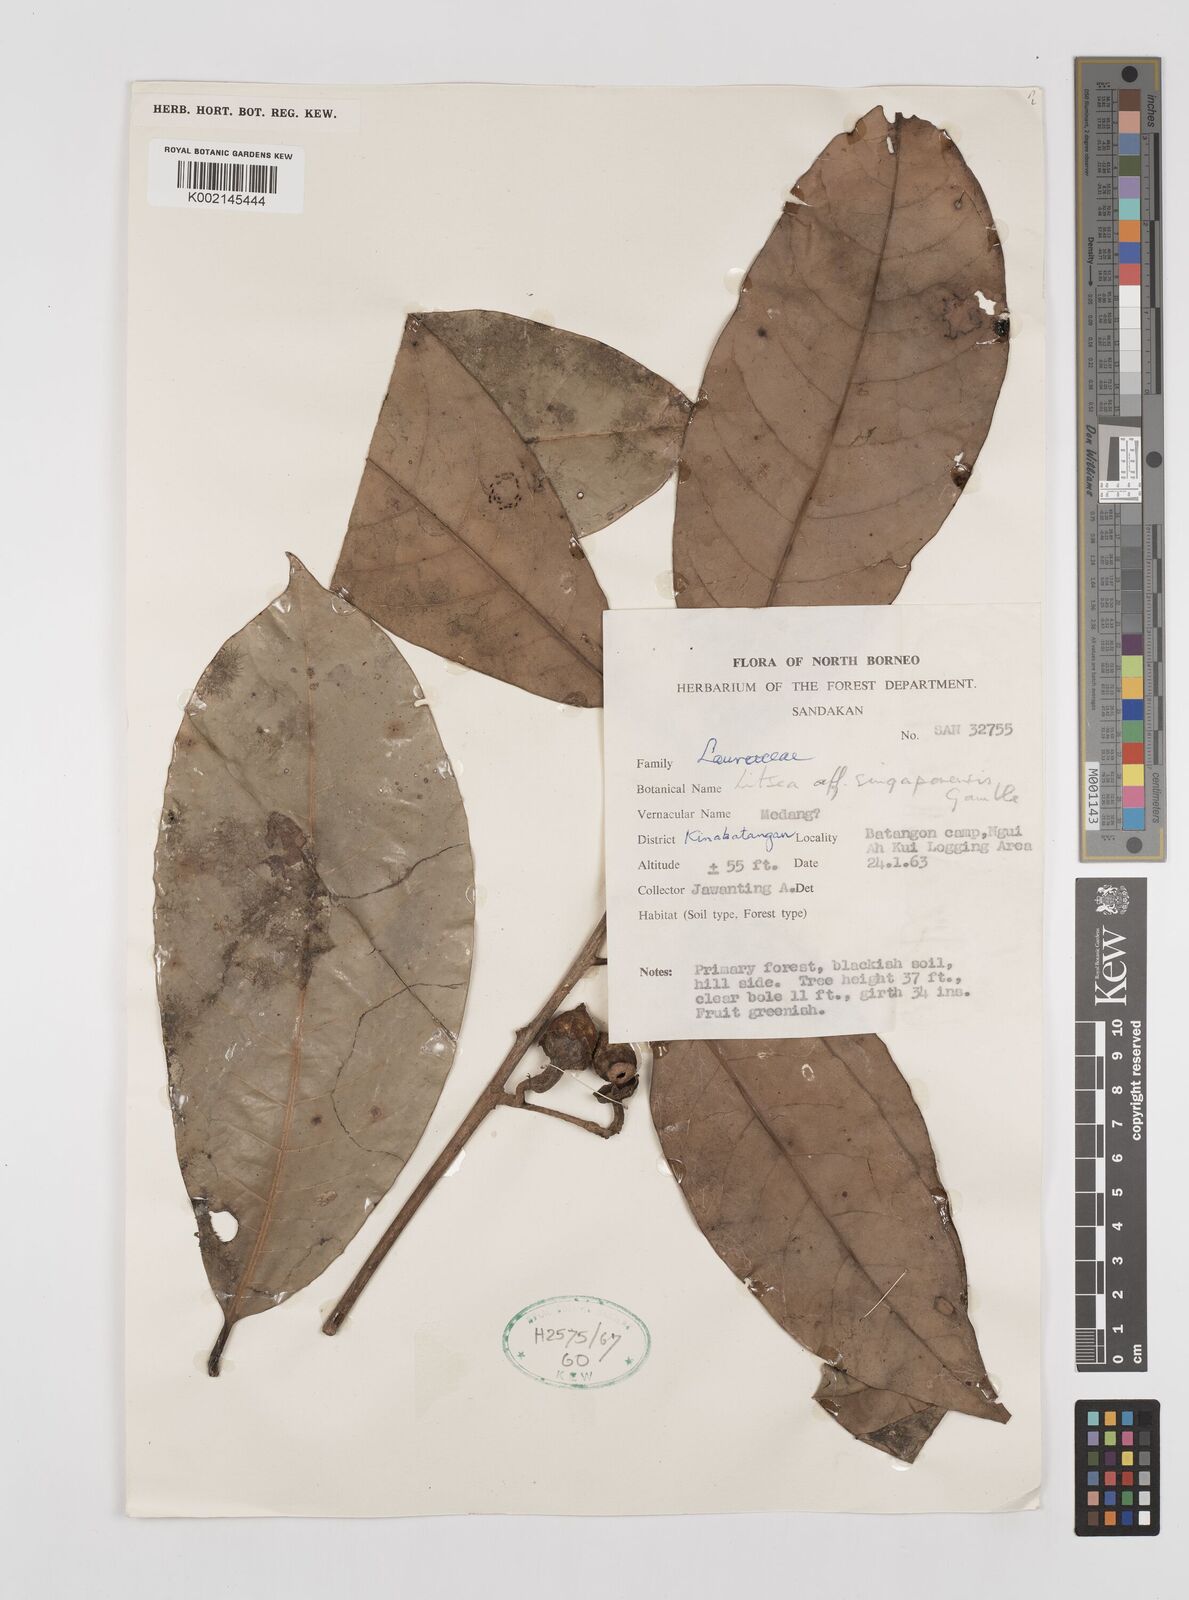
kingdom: Plantae
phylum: Tracheophyta
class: Magnoliopsida
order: Laurales
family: Lauraceae
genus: Litsea
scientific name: Litsea
